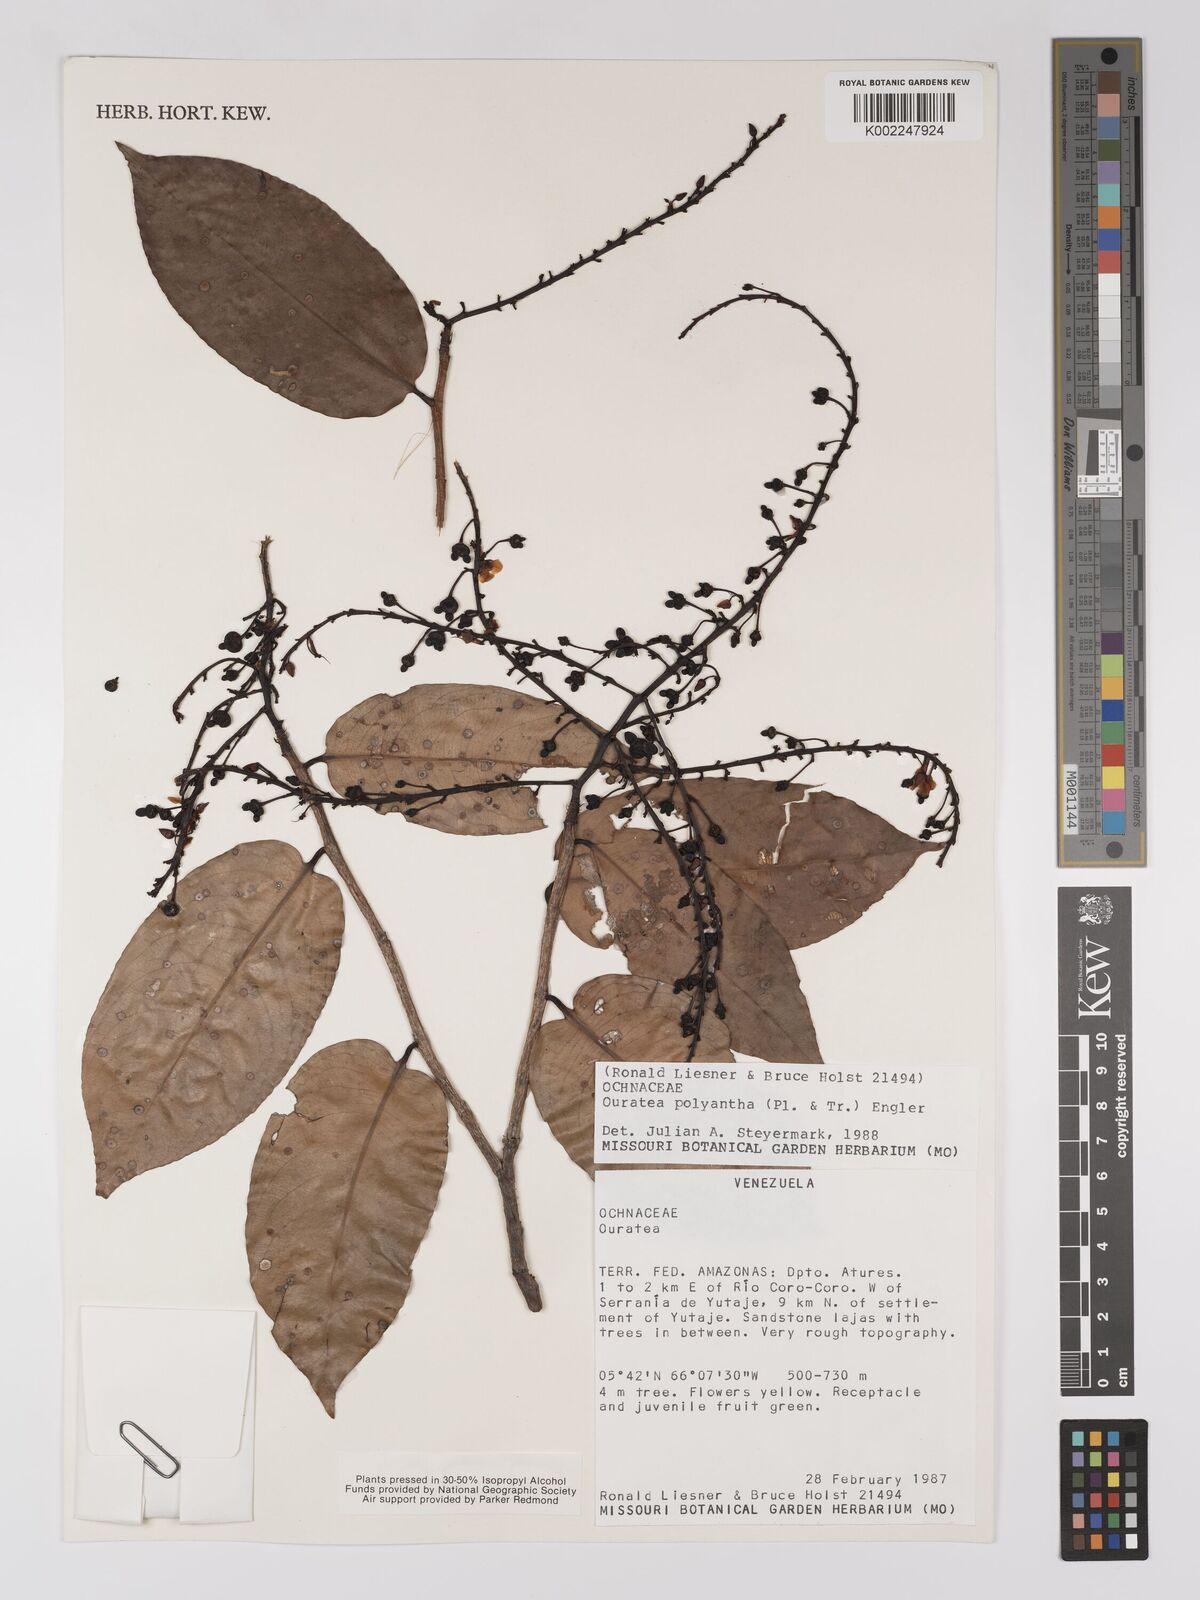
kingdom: Plantae
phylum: Tracheophyta
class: Magnoliopsida
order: Malpighiales
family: Ochnaceae
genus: Ouratea
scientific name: Ouratea polyantha
